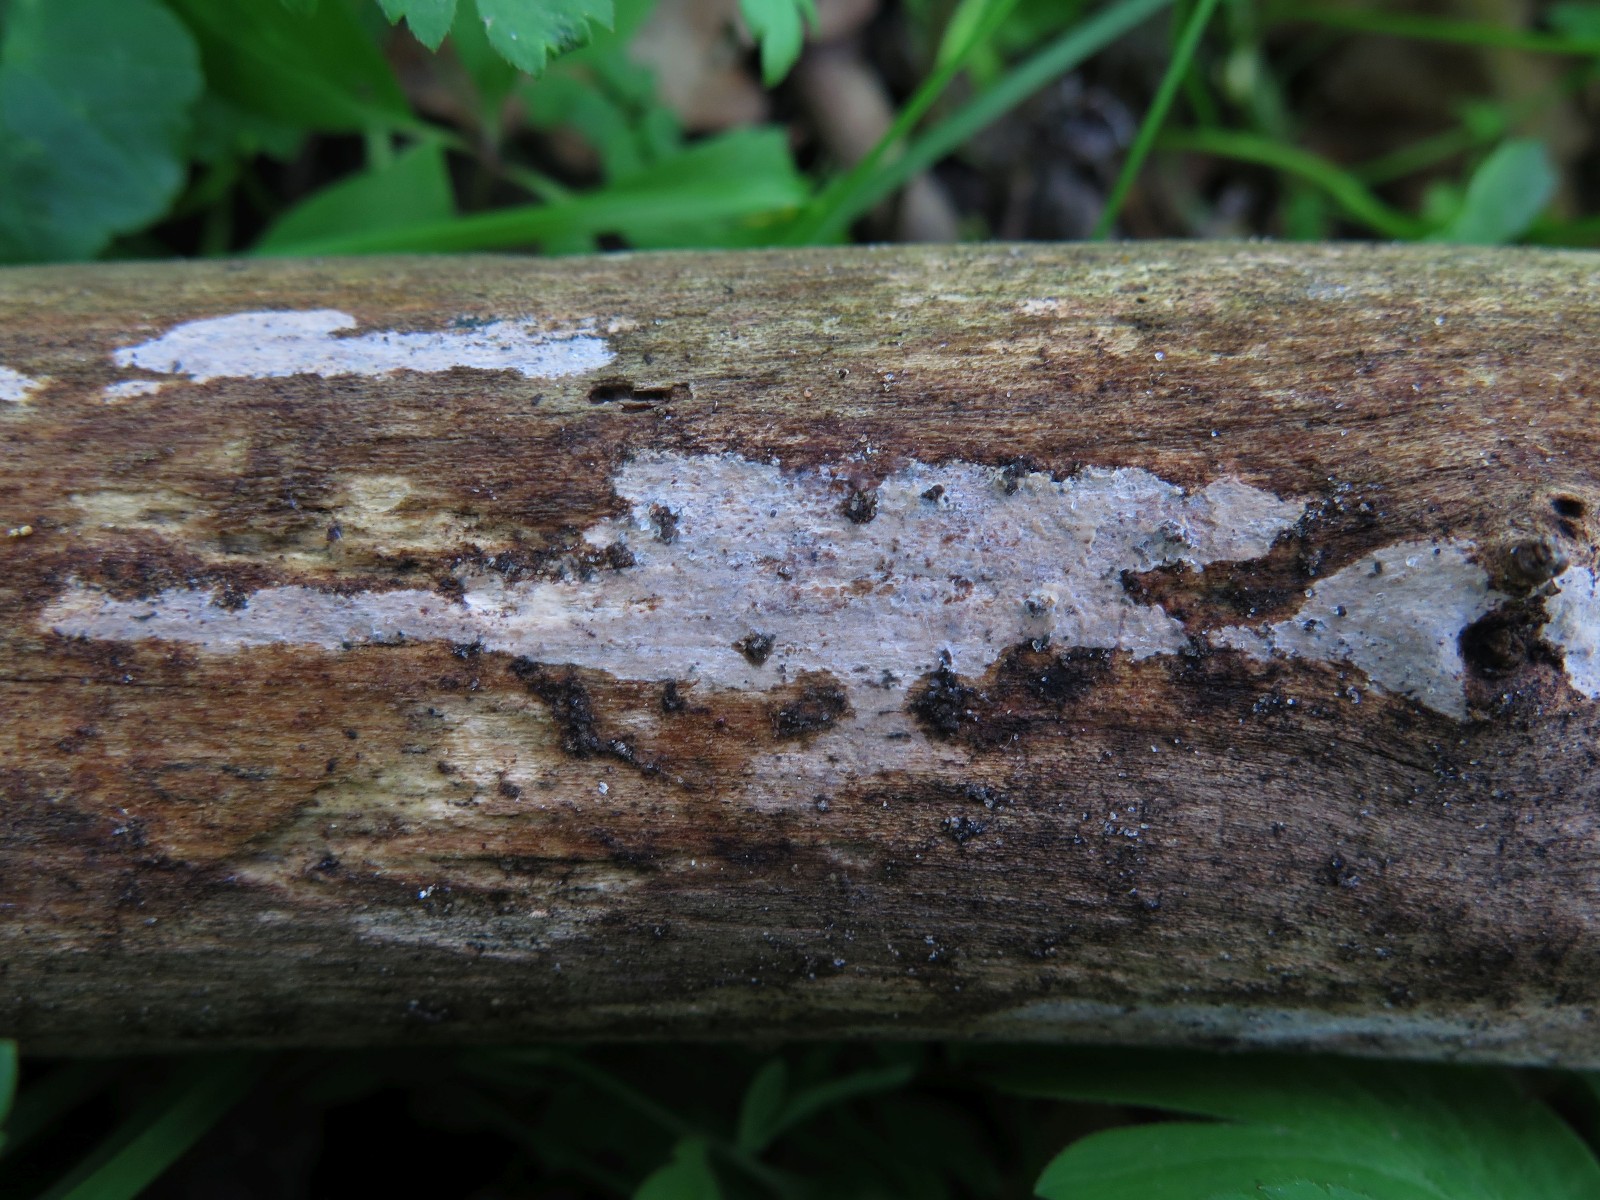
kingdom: Fungi
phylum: Basidiomycota
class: Agaricomycetes
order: Agaricales
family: Radulomycetaceae
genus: Radulomyces
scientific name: Radulomyces confluens
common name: glat naftalinskind
